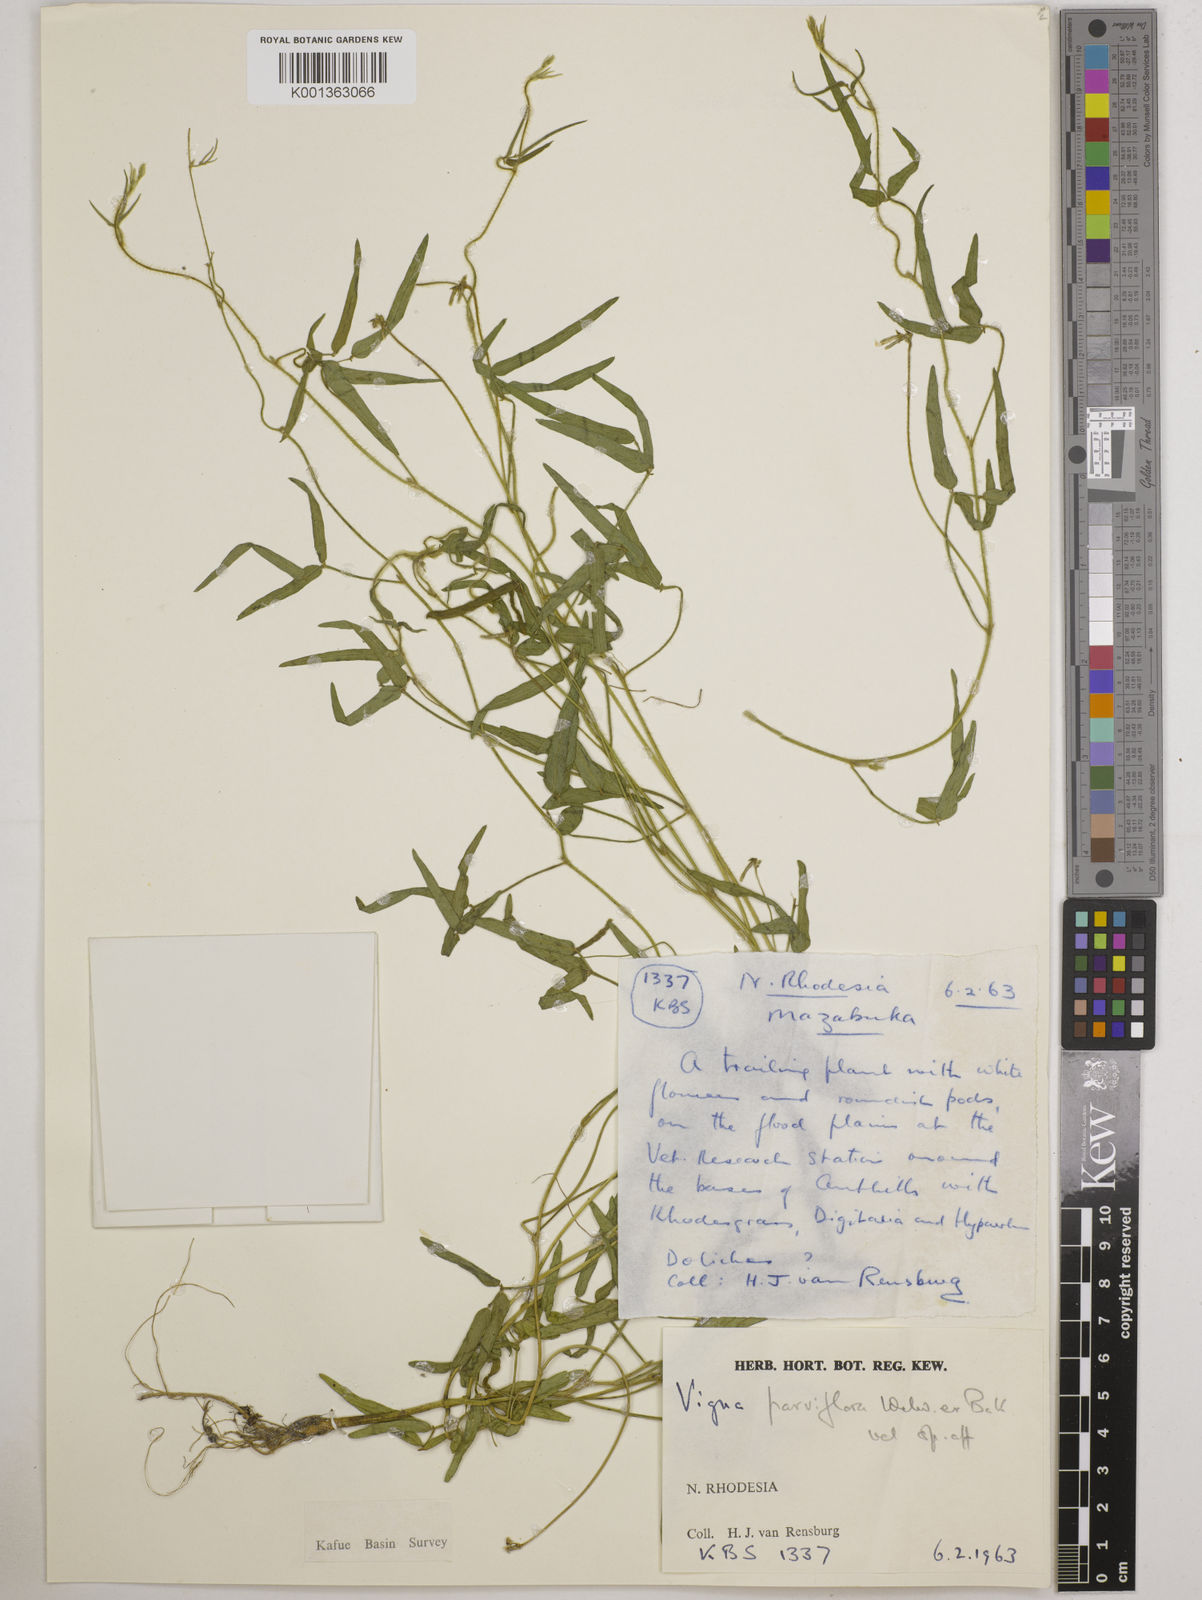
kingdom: Plantae
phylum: Tracheophyta
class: Magnoliopsida
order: Fabales
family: Fabaceae
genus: Vigna
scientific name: Vigna
